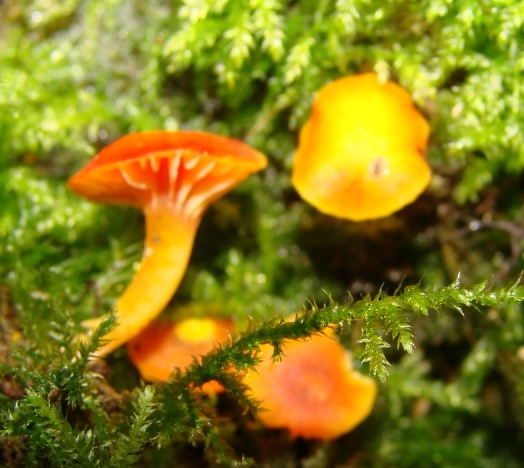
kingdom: Fungi
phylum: Basidiomycota
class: Agaricomycetes
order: Agaricales
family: Hygrophoraceae
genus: Hygrocybe
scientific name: Hygrocybe insipida
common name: liden vokshat
